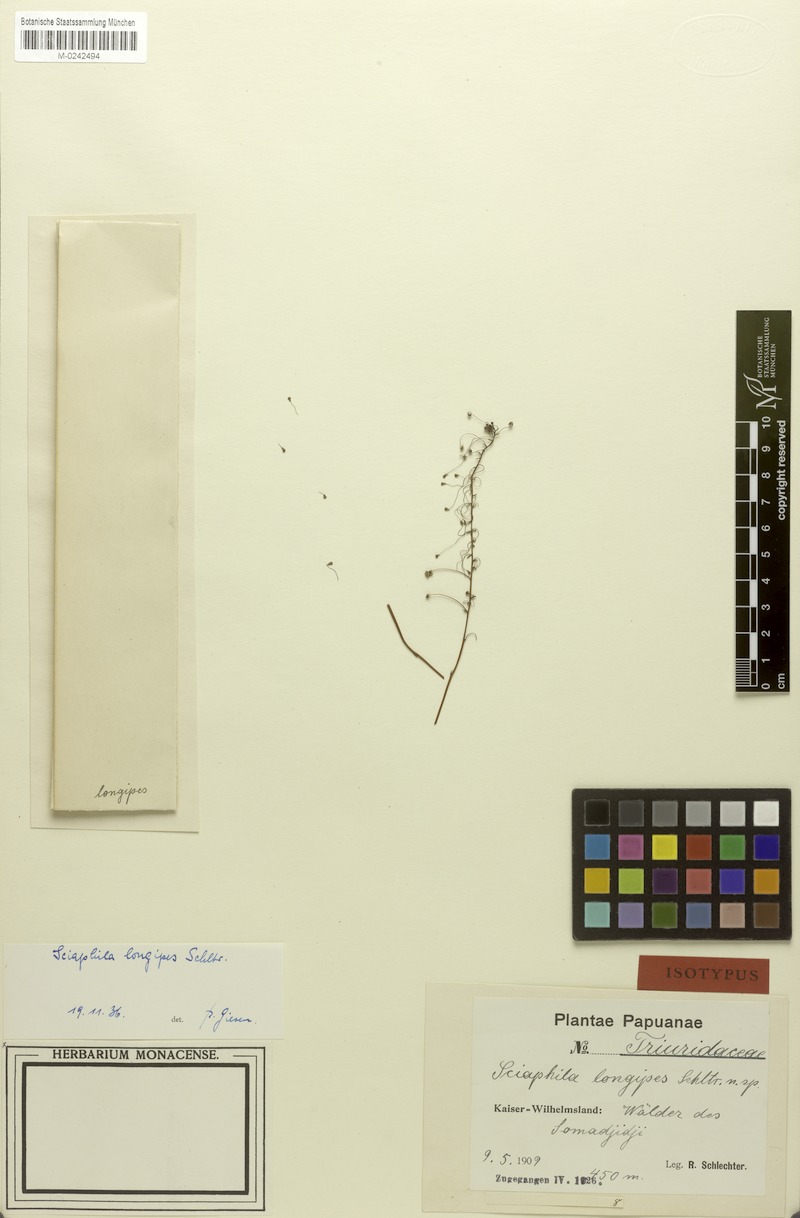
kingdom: Plantae
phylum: Tracheophyta
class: Liliopsida
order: Pandanales
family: Triuridaceae
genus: Sciaphila
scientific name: Sciaphila densiflora
